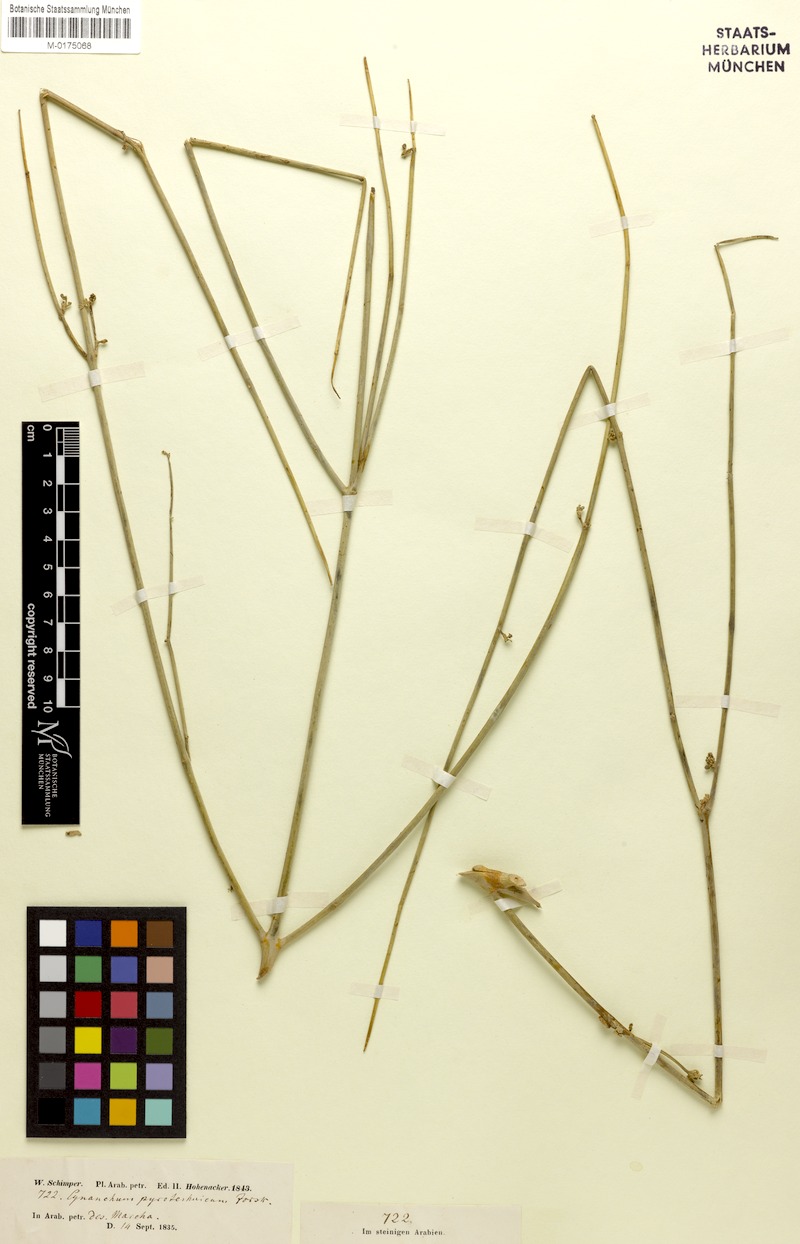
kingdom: Plantae
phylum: Tracheophyta
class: Magnoliopsida
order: Gentianales
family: Apocynaceae
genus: Leptadenia
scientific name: Leptadenia pyrotechnica
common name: Broom brush
